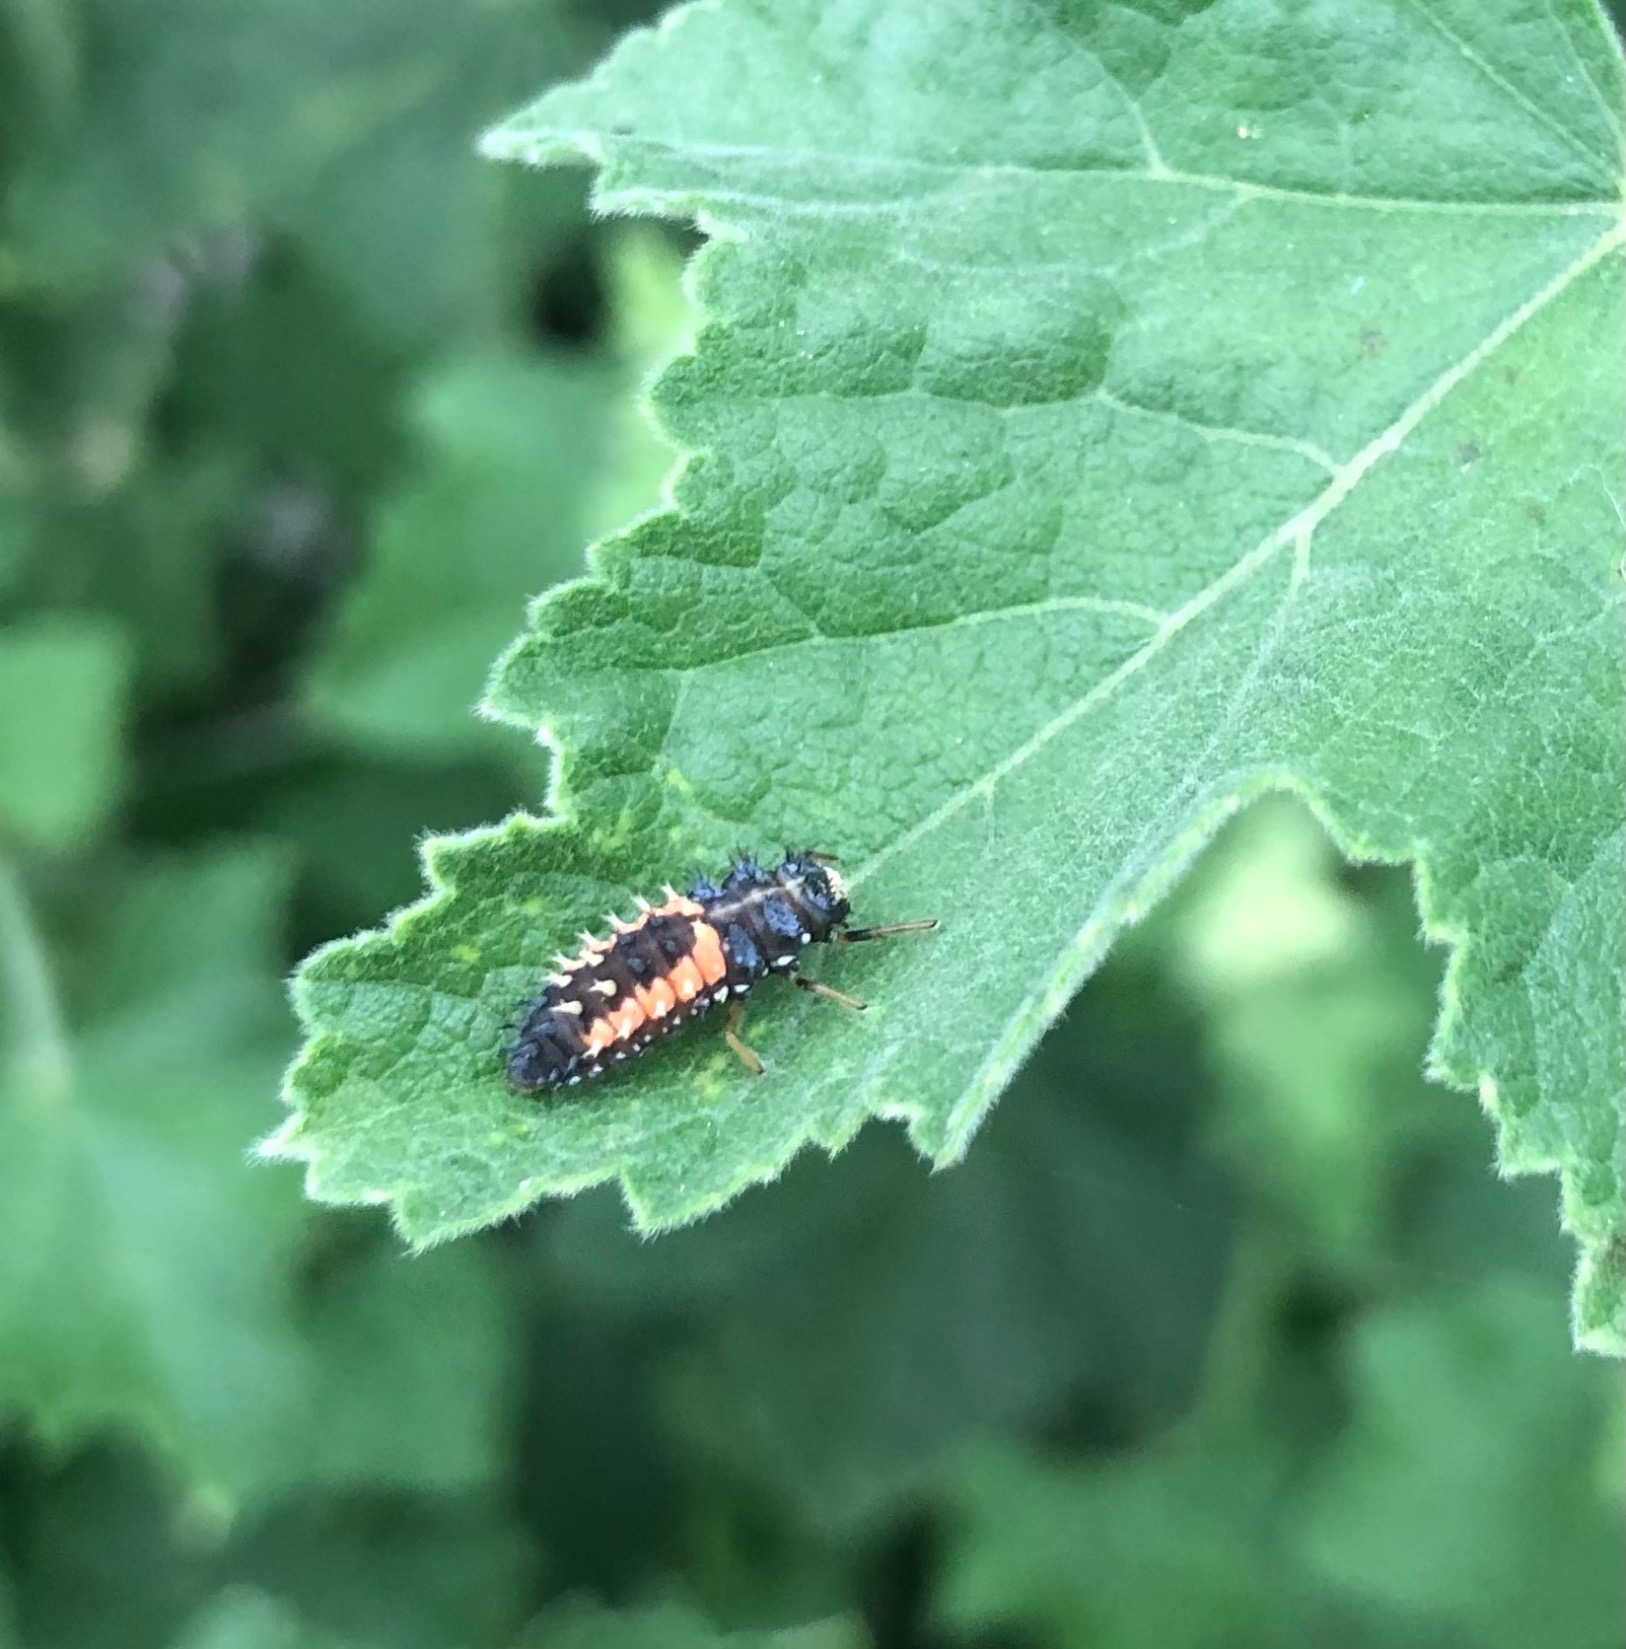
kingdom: Animalia
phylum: Arthropoda
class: Insecta
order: Coleoptera
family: Coccinellidae
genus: Harmonia
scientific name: Harmonia axyridis
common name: Harlekinmariehøne
